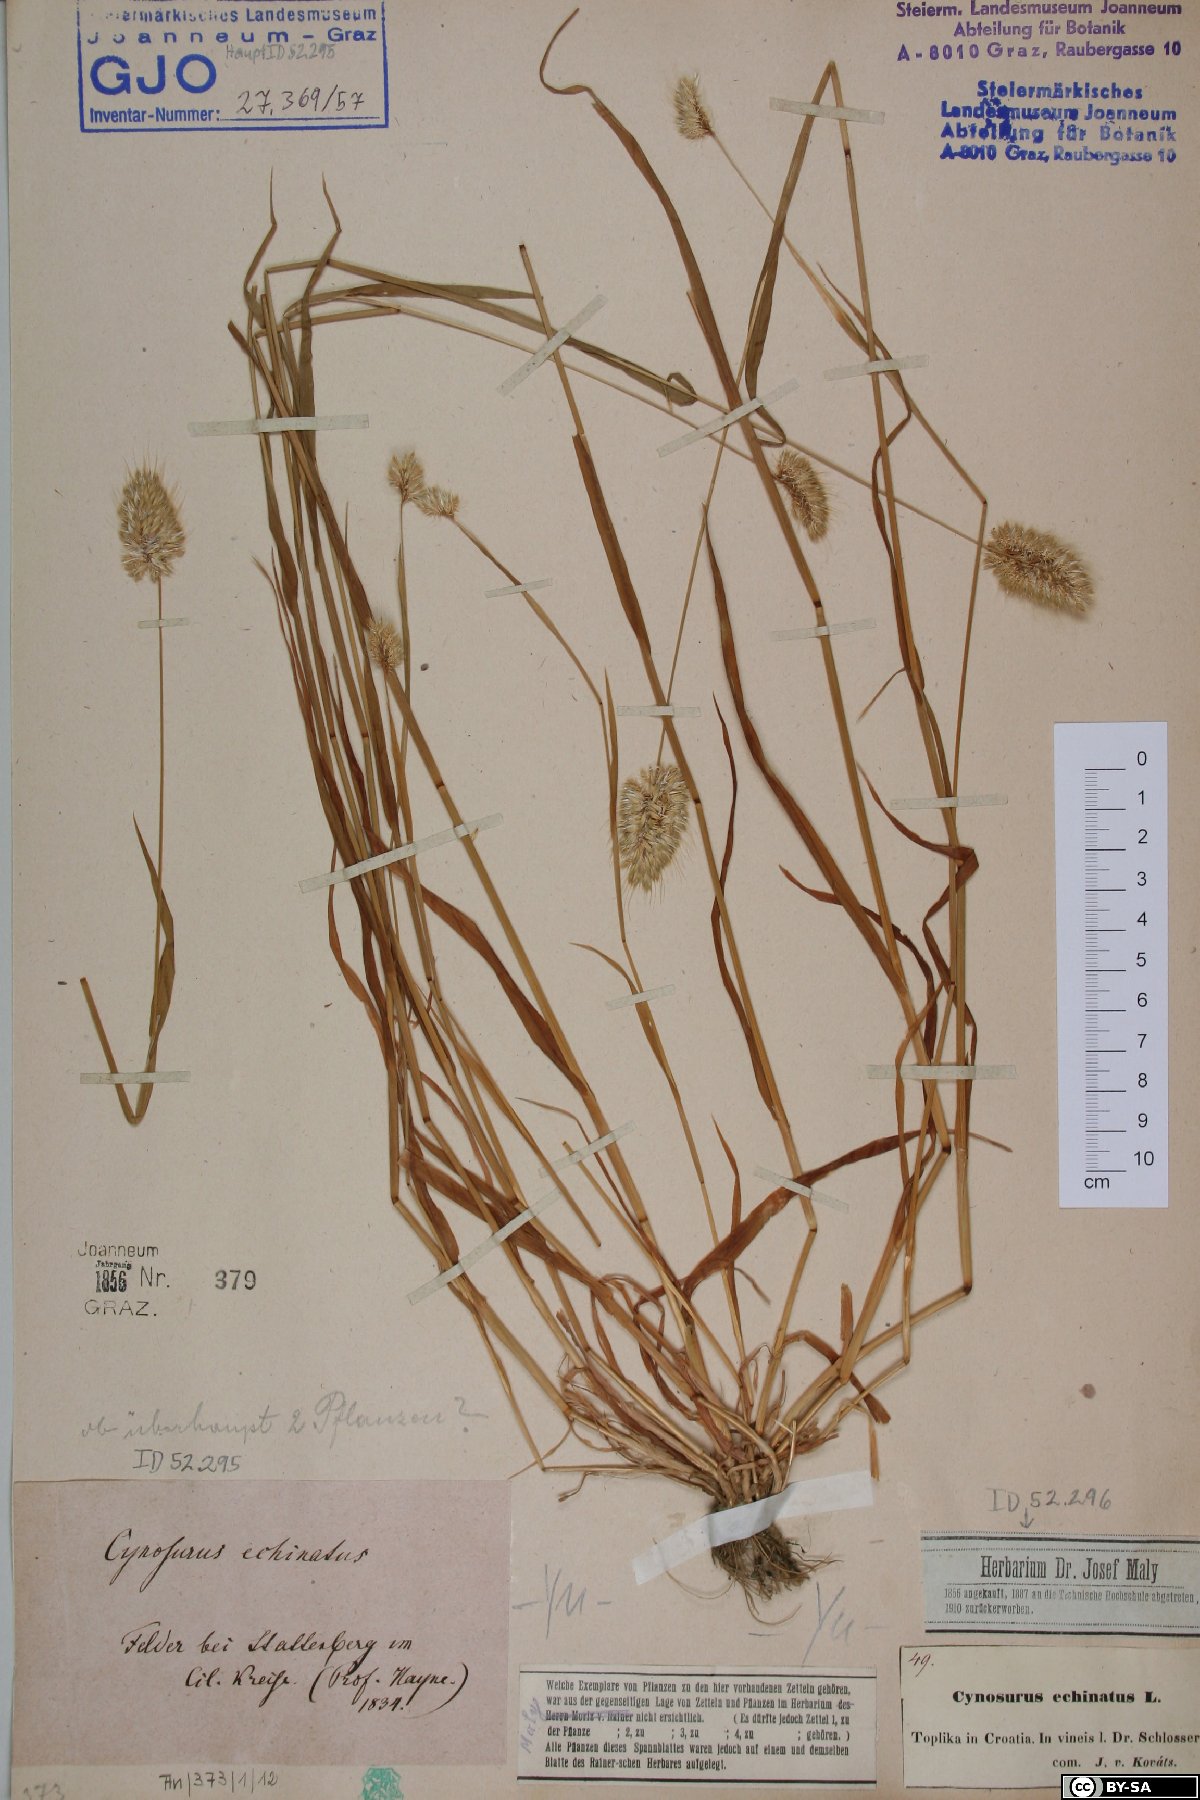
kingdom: Plantae
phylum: Tracheophyta
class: Liliopsida
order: Poales
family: Poaceae
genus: Cynosurus
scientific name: Cynosurus echinatus
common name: Rough dog's-tail
